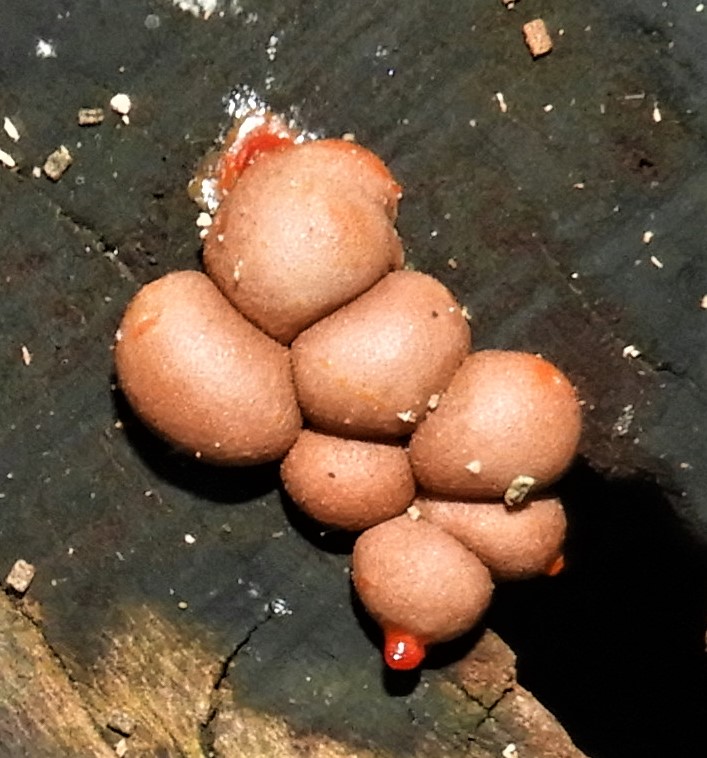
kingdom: Protozoa
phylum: Mycetozoa
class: Myxomycetes
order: Cribrariales
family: Tubiferaceae
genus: Lycogala
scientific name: Lycogala epidendrum
